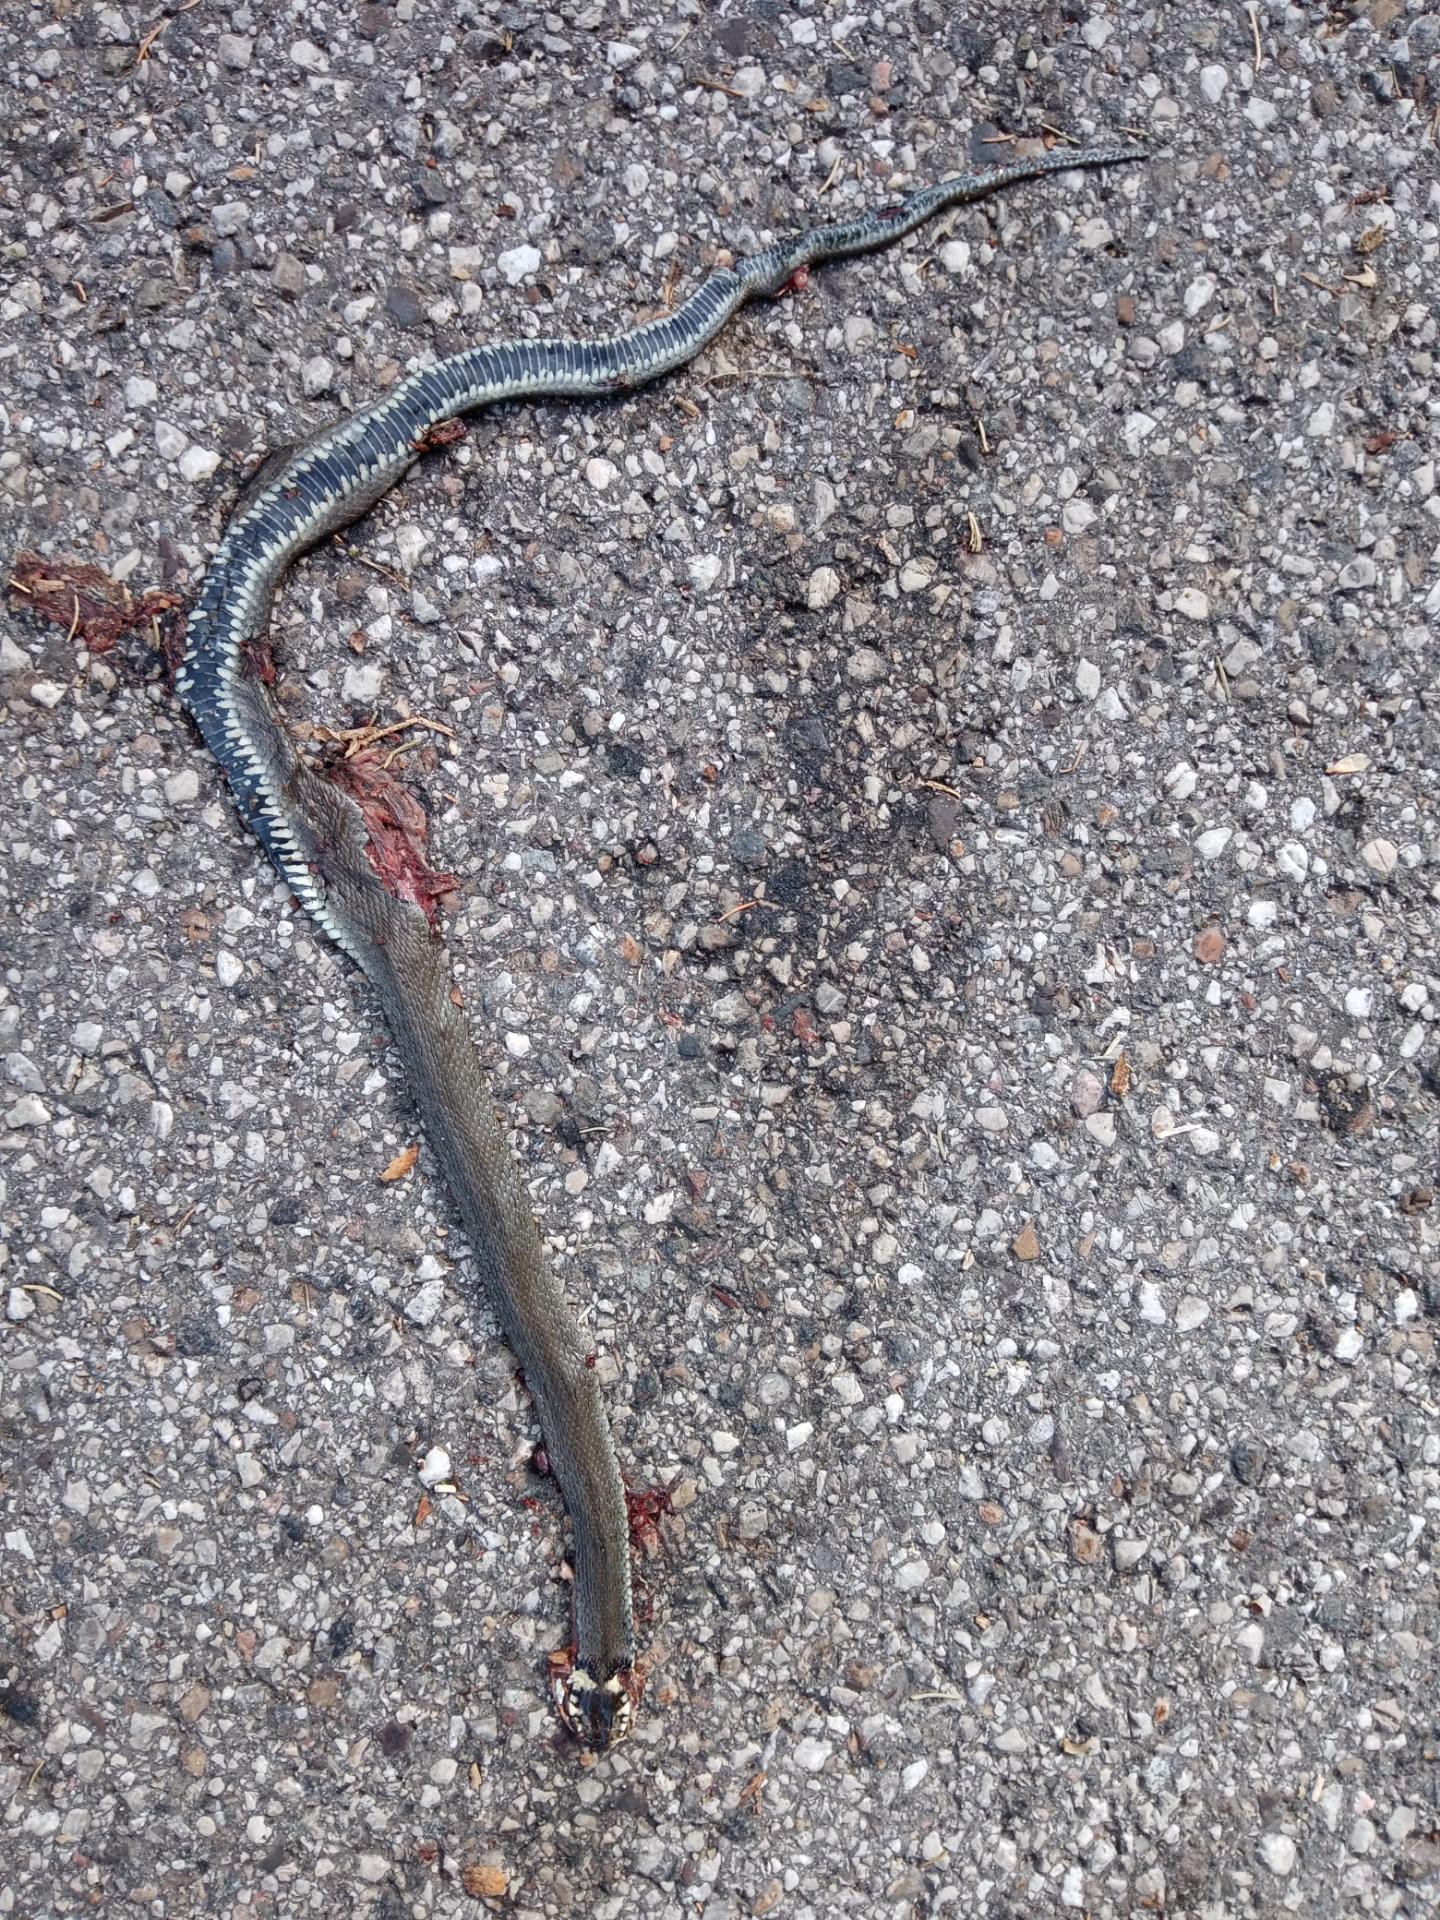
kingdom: Animalia
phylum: Chordata
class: Squamata
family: Colubridae
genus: Natrix
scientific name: Natrix natrix
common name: Grass snake
